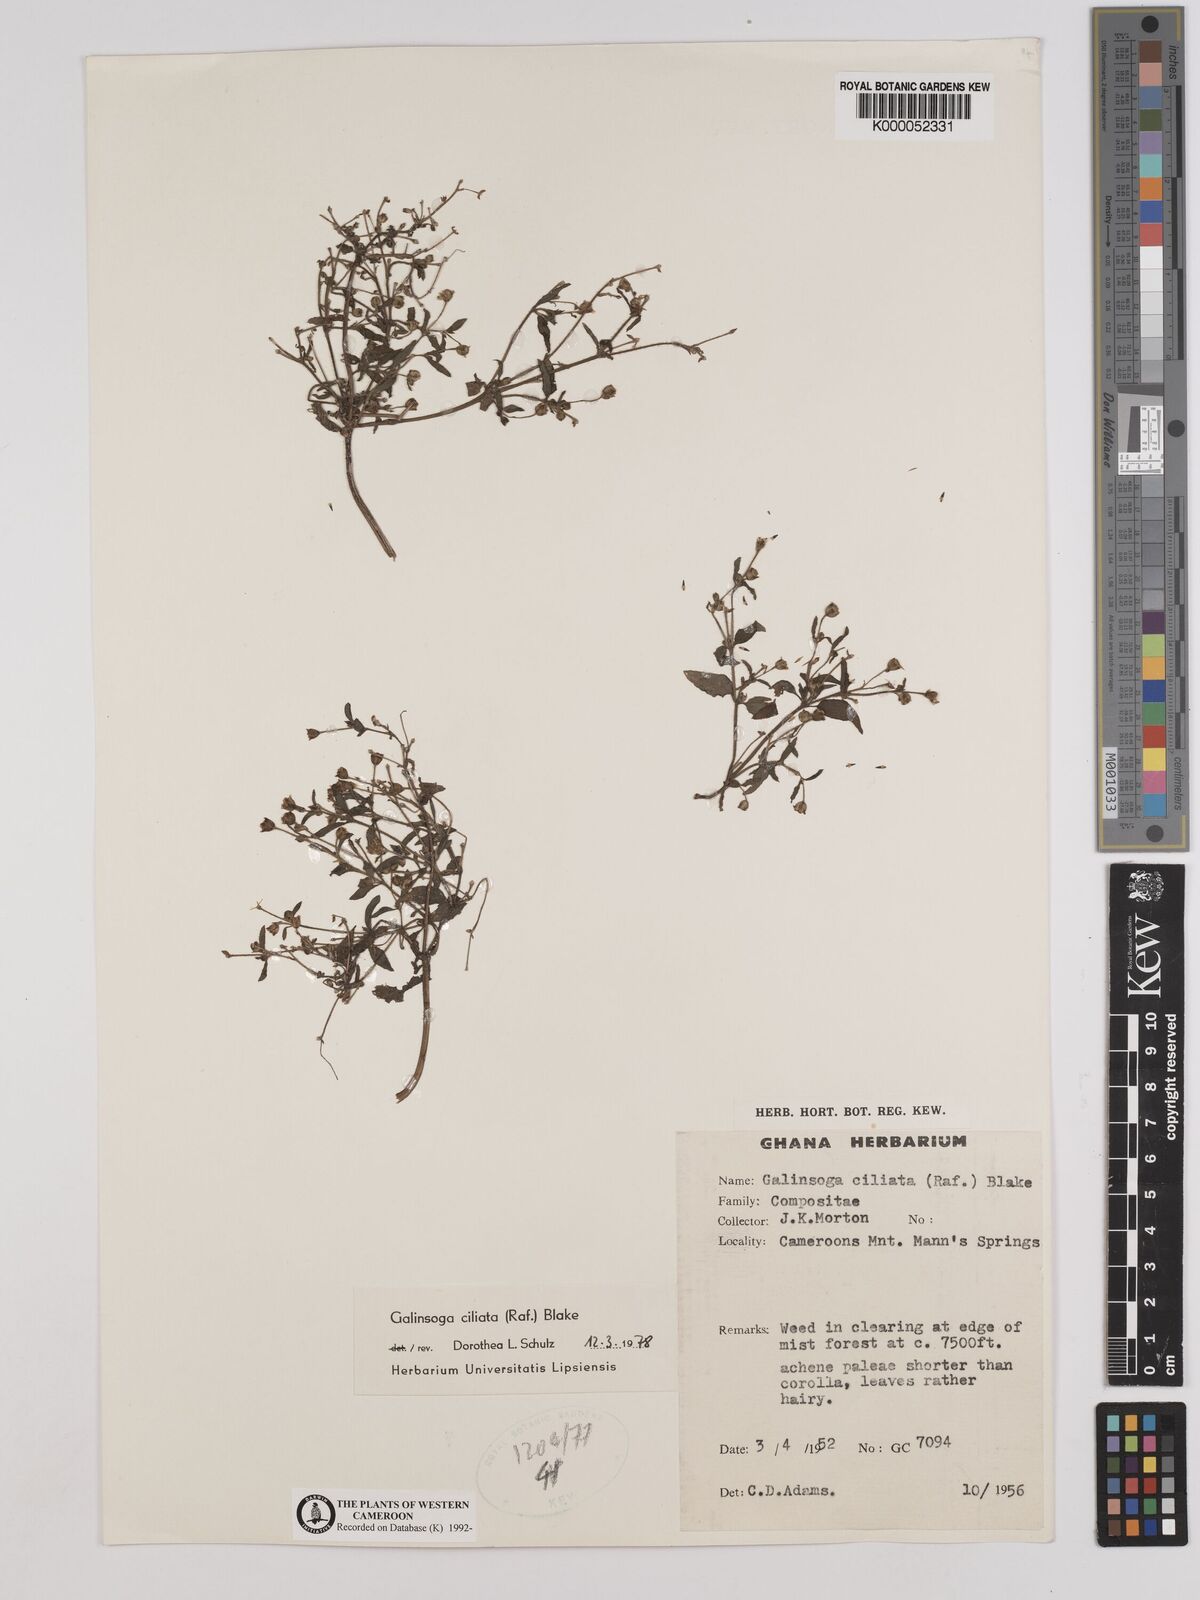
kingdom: Plantae
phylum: Tracheophyta
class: Magnoliopsida
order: Asterales
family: Asteraceae
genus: Galinsoga
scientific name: Galinsoga quadriradiata
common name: Shaggy soldier
